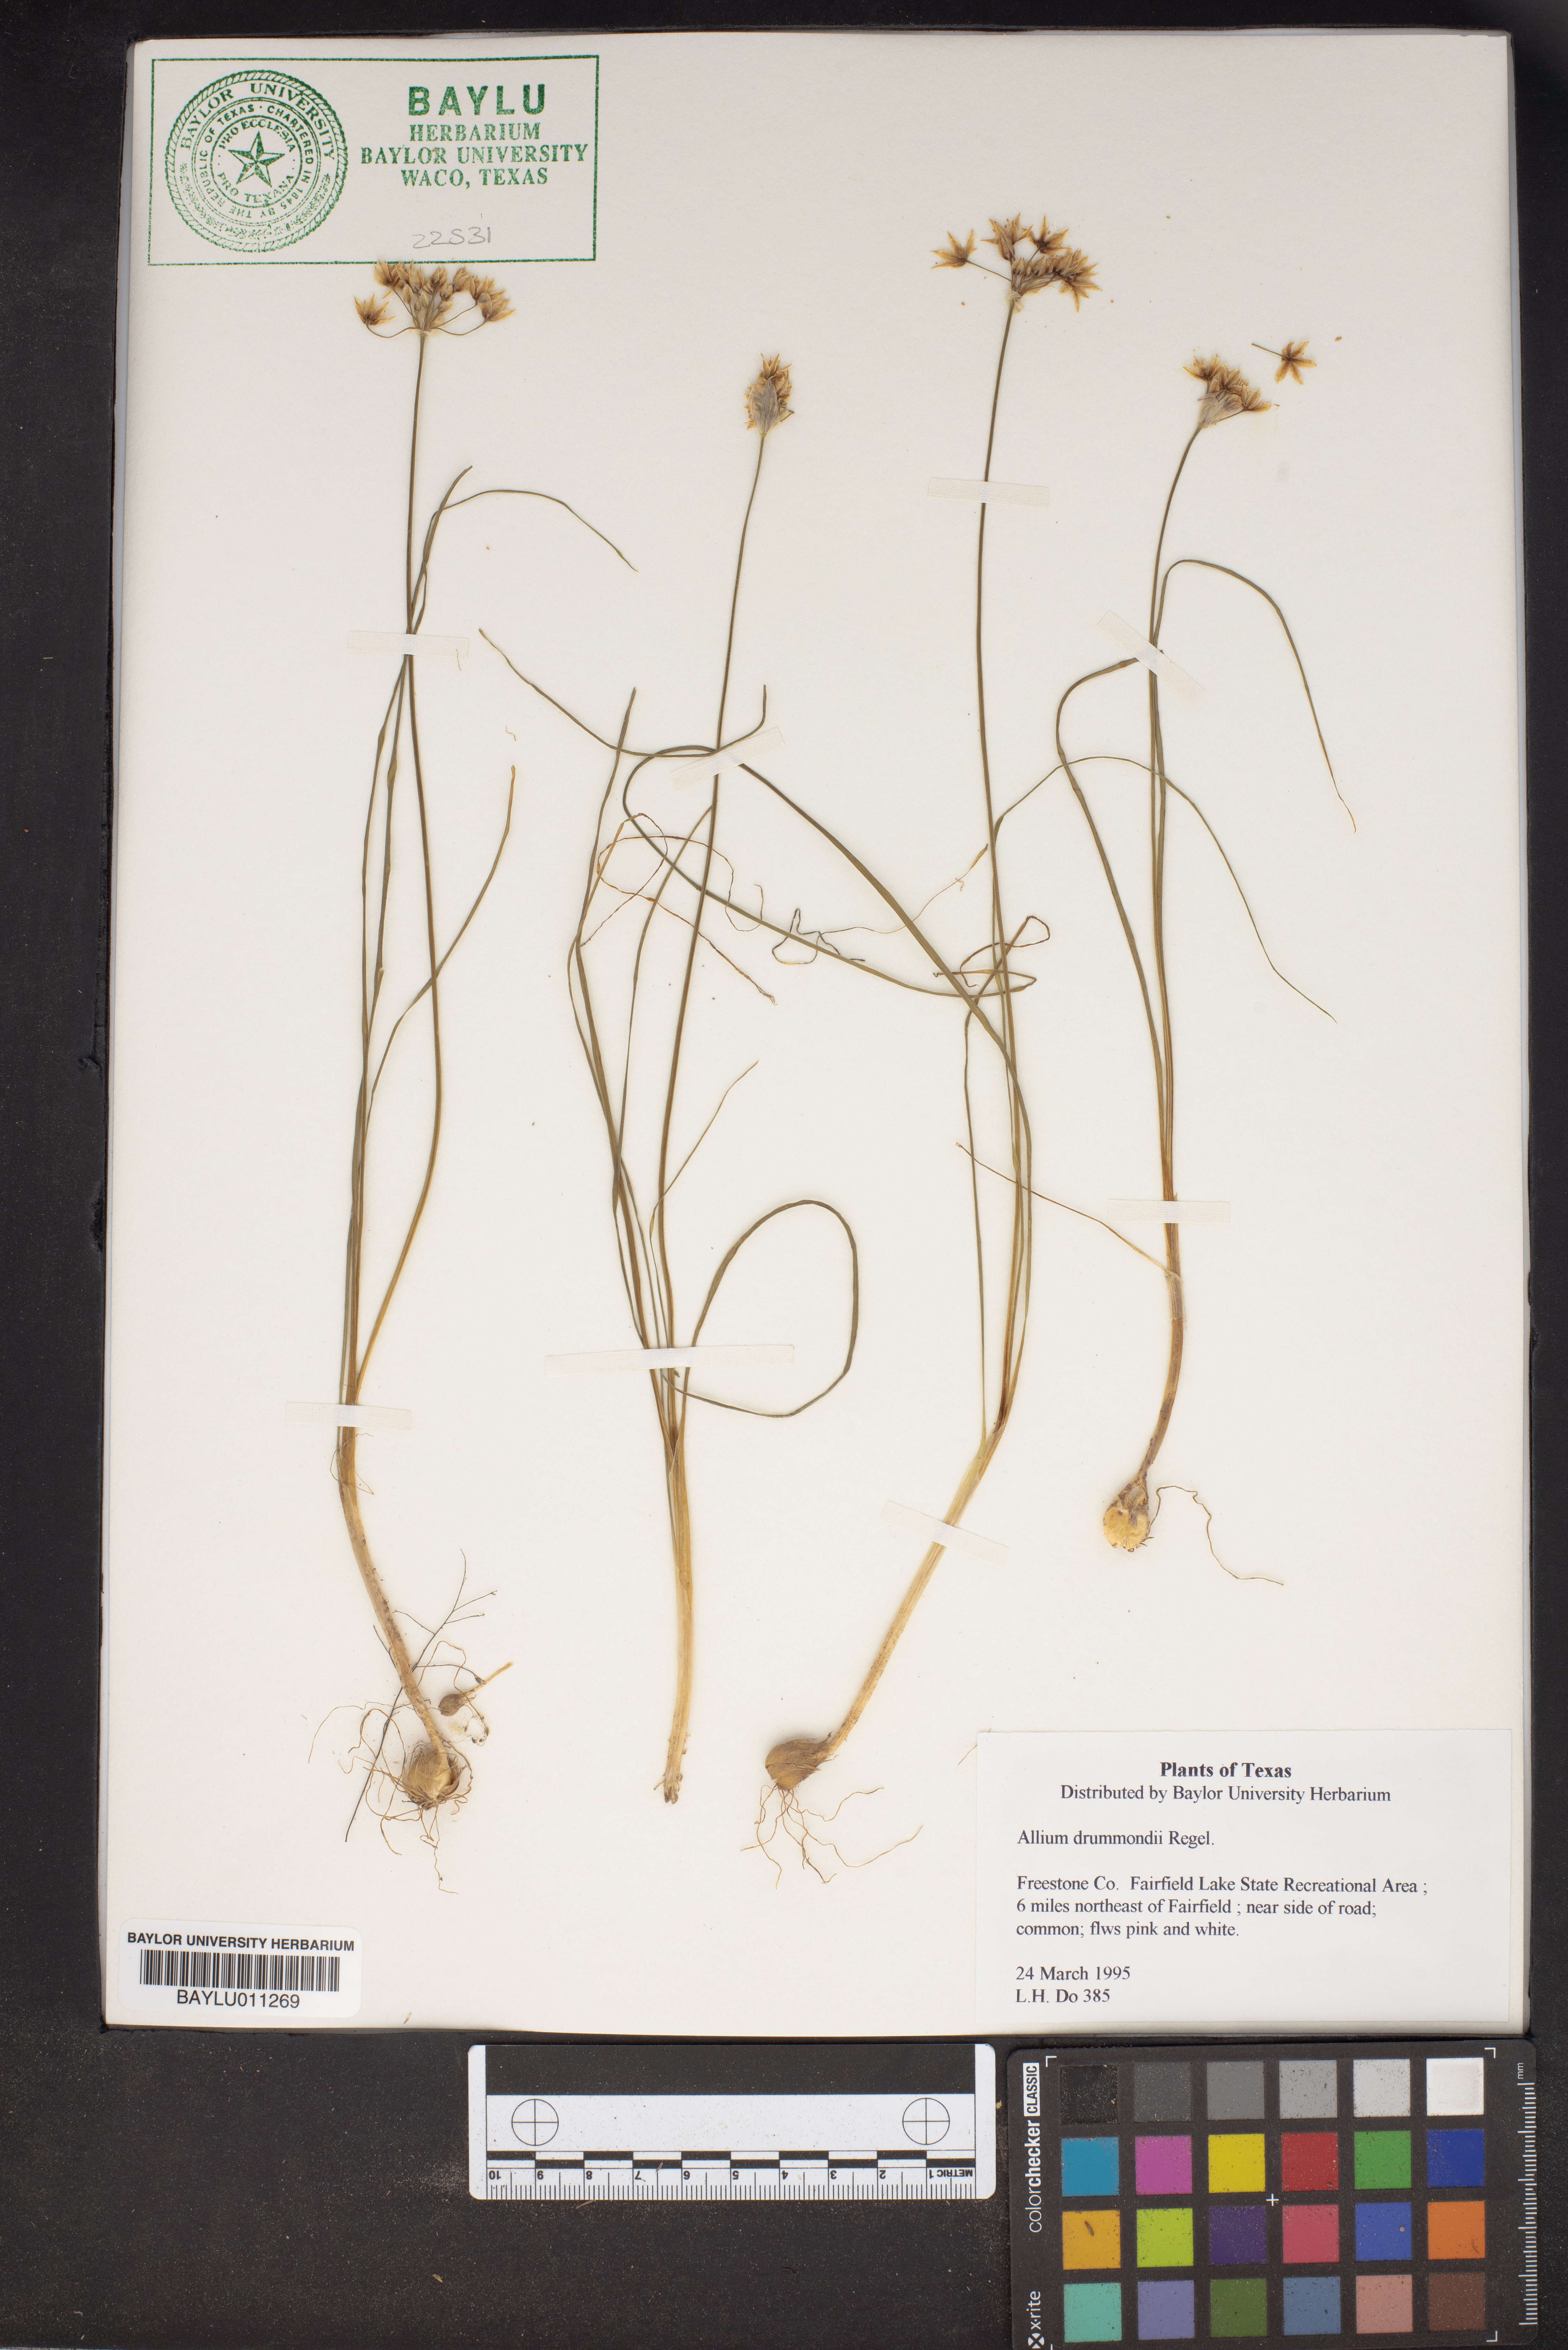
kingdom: Plantae
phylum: Tracheophyta
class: Liliopsida
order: Asparagales
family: Amaryllidaceae
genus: Allium
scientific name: Allium drummondii
